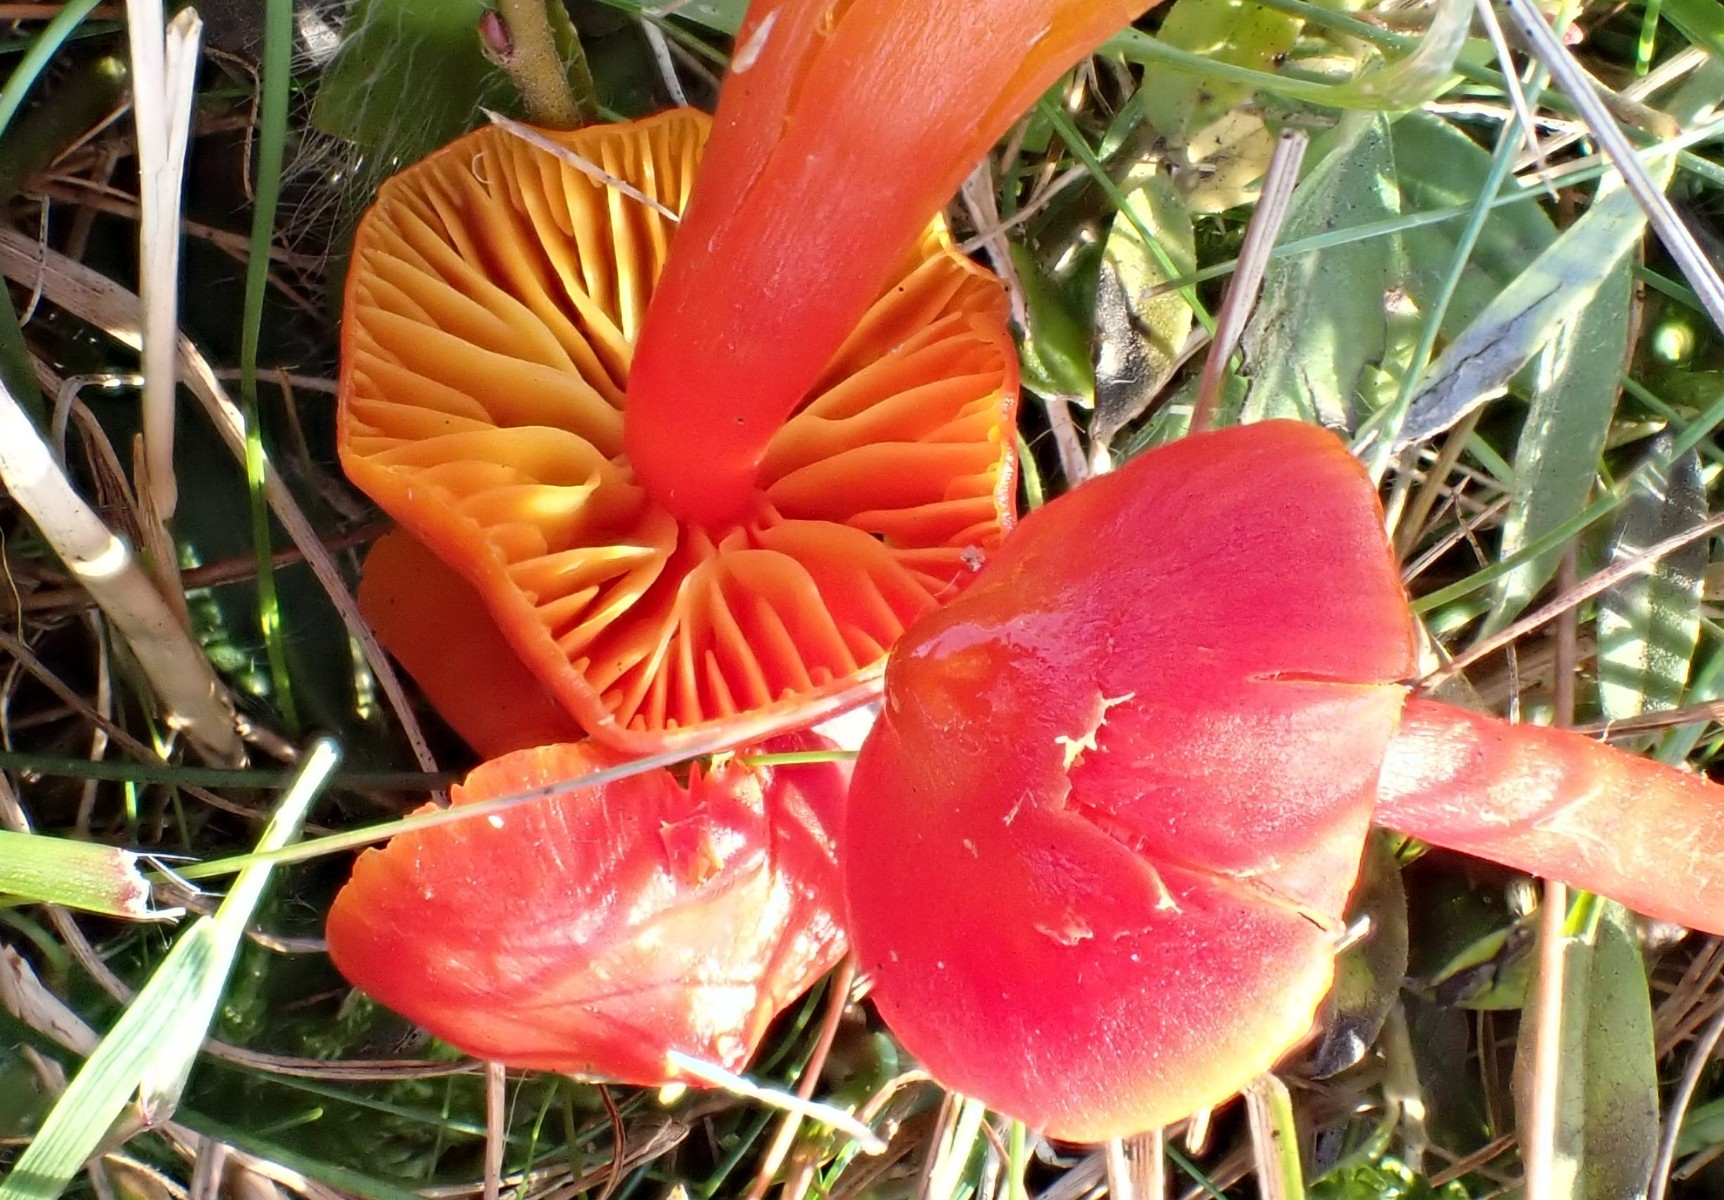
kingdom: Fungi
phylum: Basidiomycota
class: Agaricomycetes
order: Agaricales
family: Hygrophoraceae
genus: Hygrocybe
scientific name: Hygrocybe coccinea
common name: cinnober-vokshat
